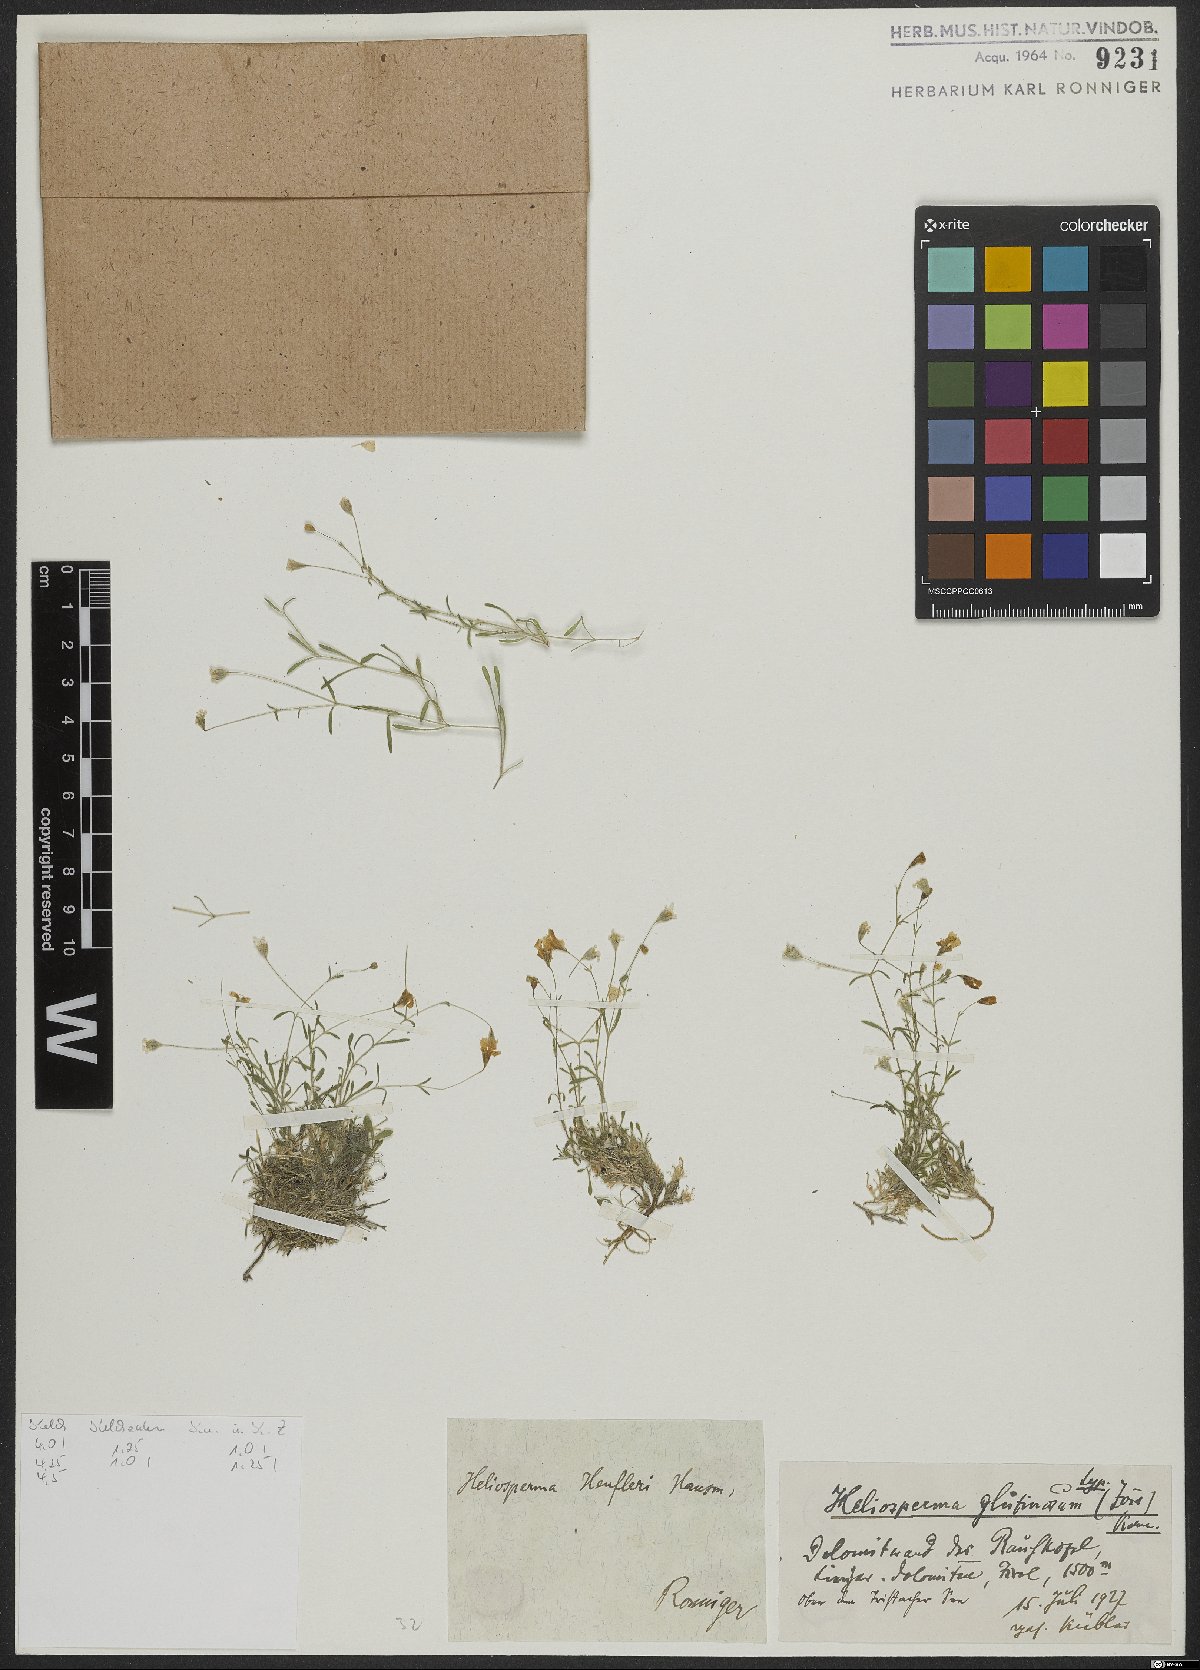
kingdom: Plantae
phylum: Tracheophyta
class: Magnoliopsida
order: Caryophyllales
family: Caryophyllaceae
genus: Heliosperma
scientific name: Heliosperma veselskyi
